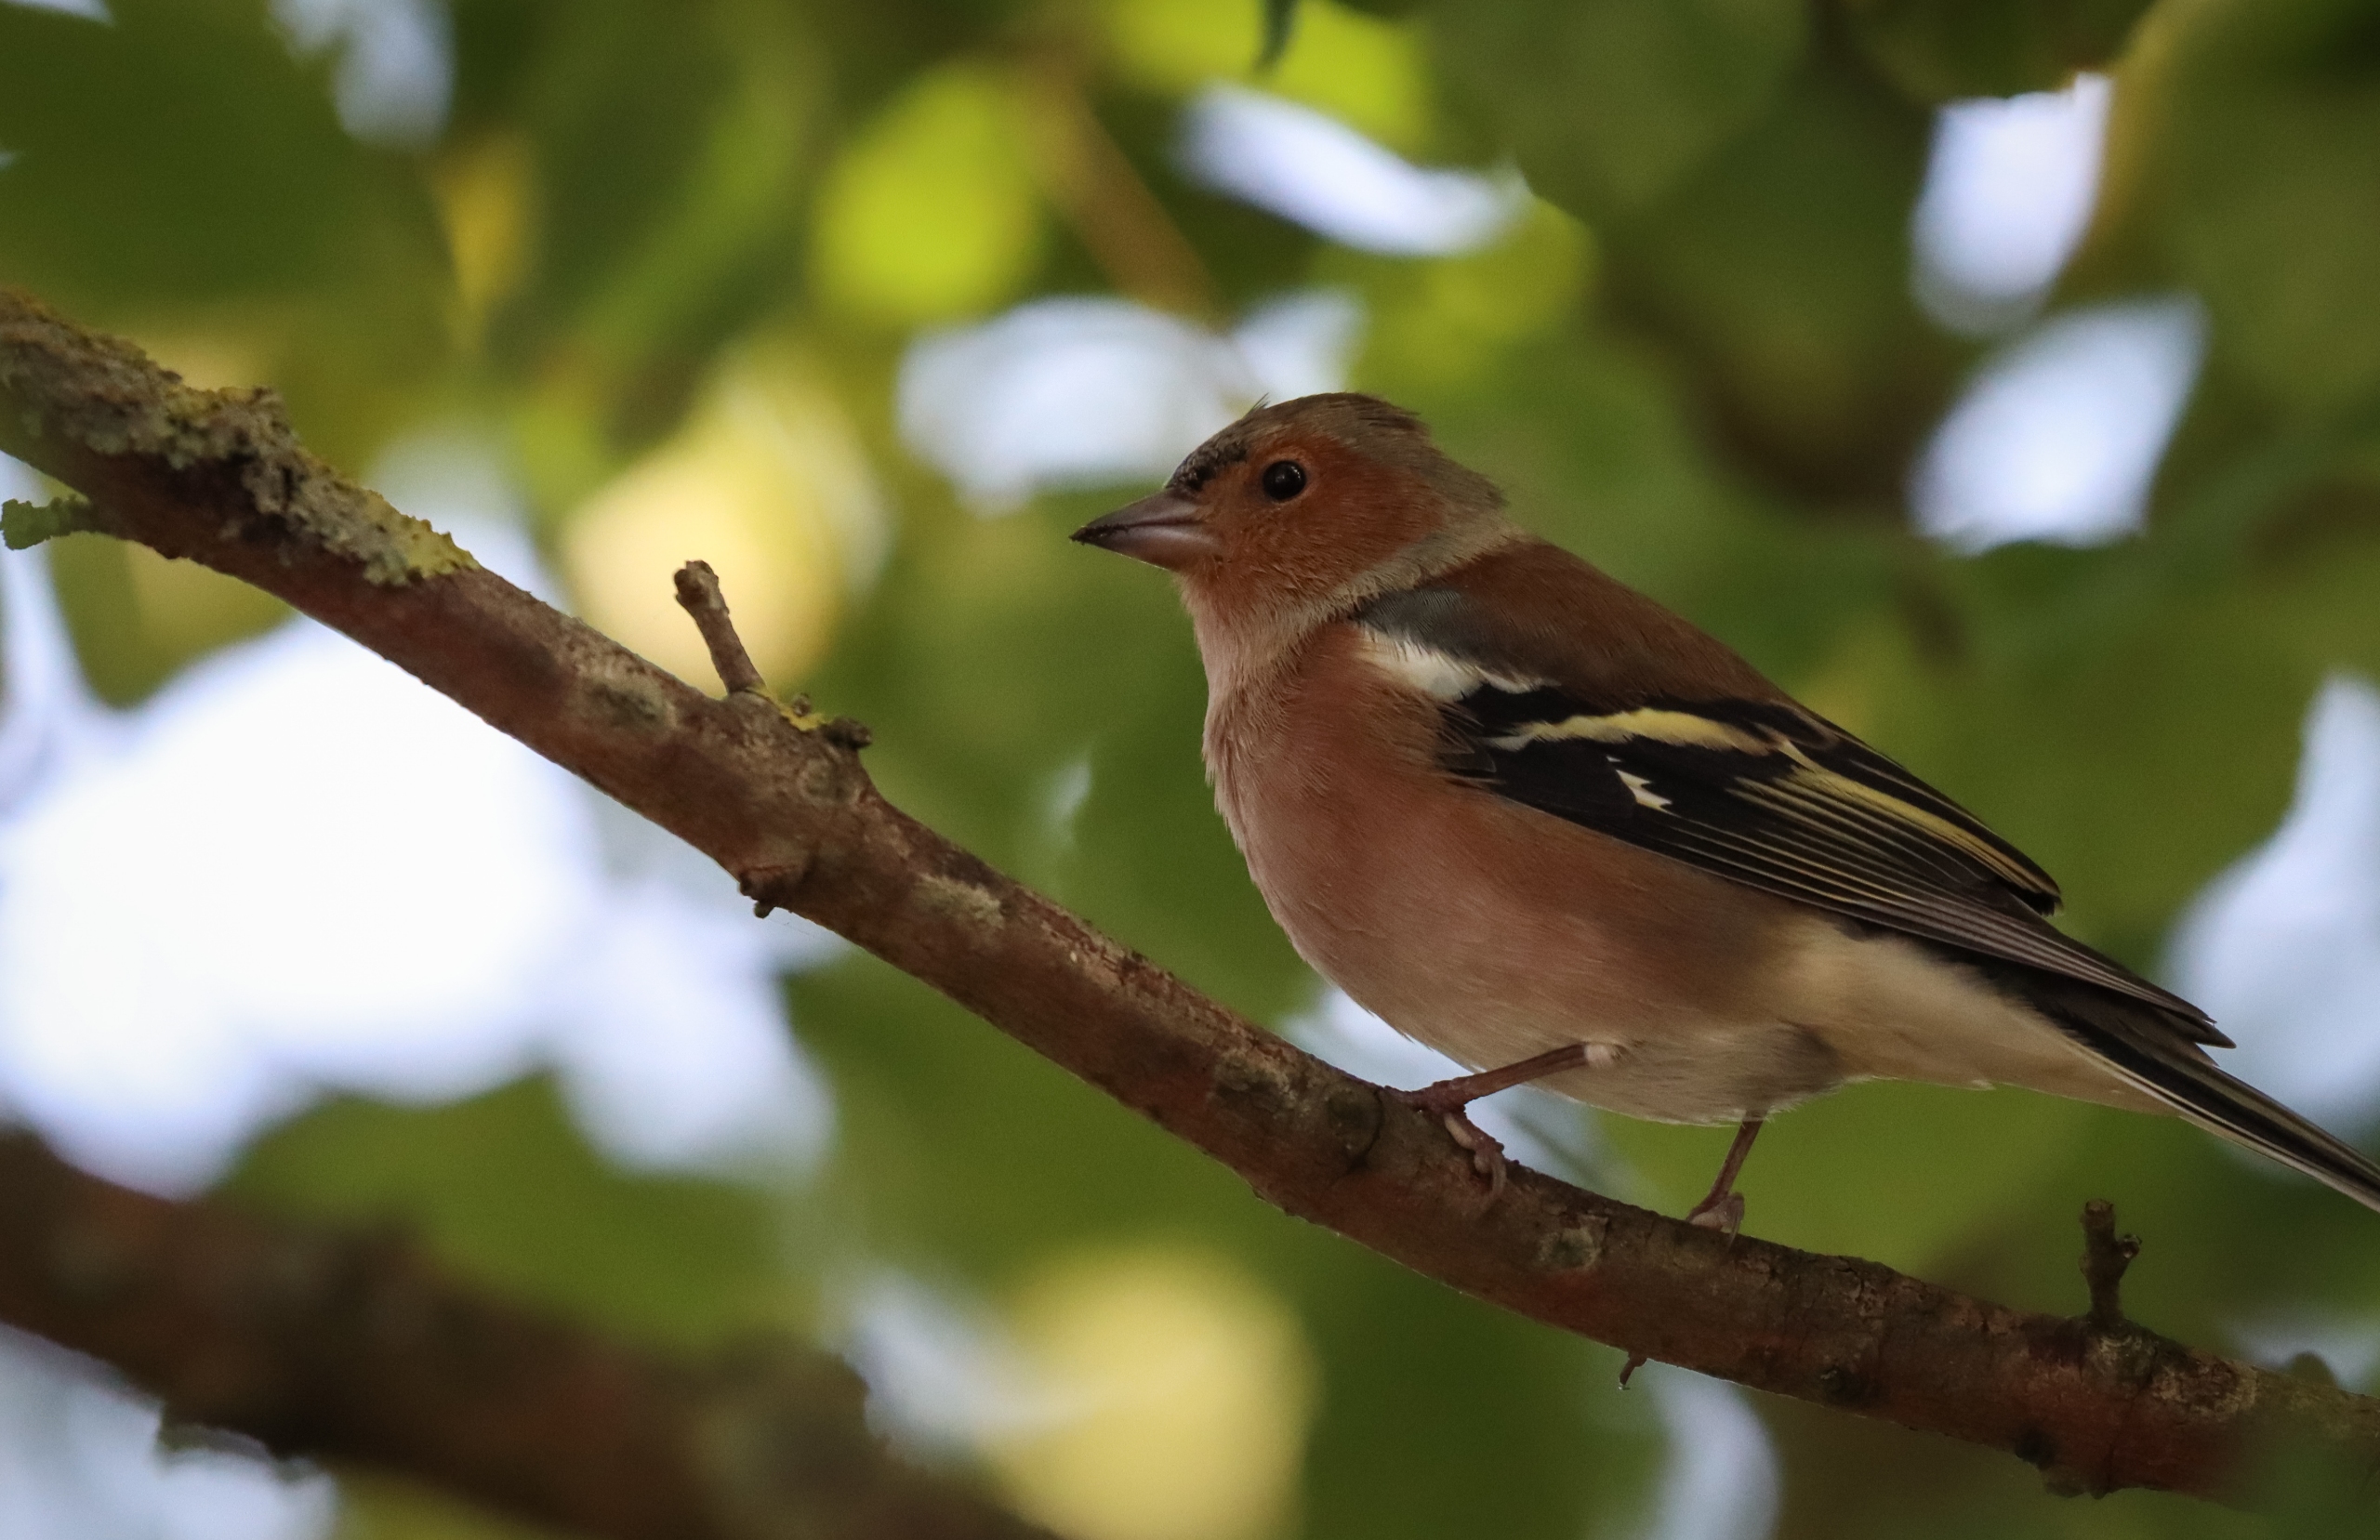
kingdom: Animalia
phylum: Chordata
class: Aves
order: Passeriformes
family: Fringillidae
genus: Fringilla
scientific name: Fringilla coelebs
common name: Bogfinke
